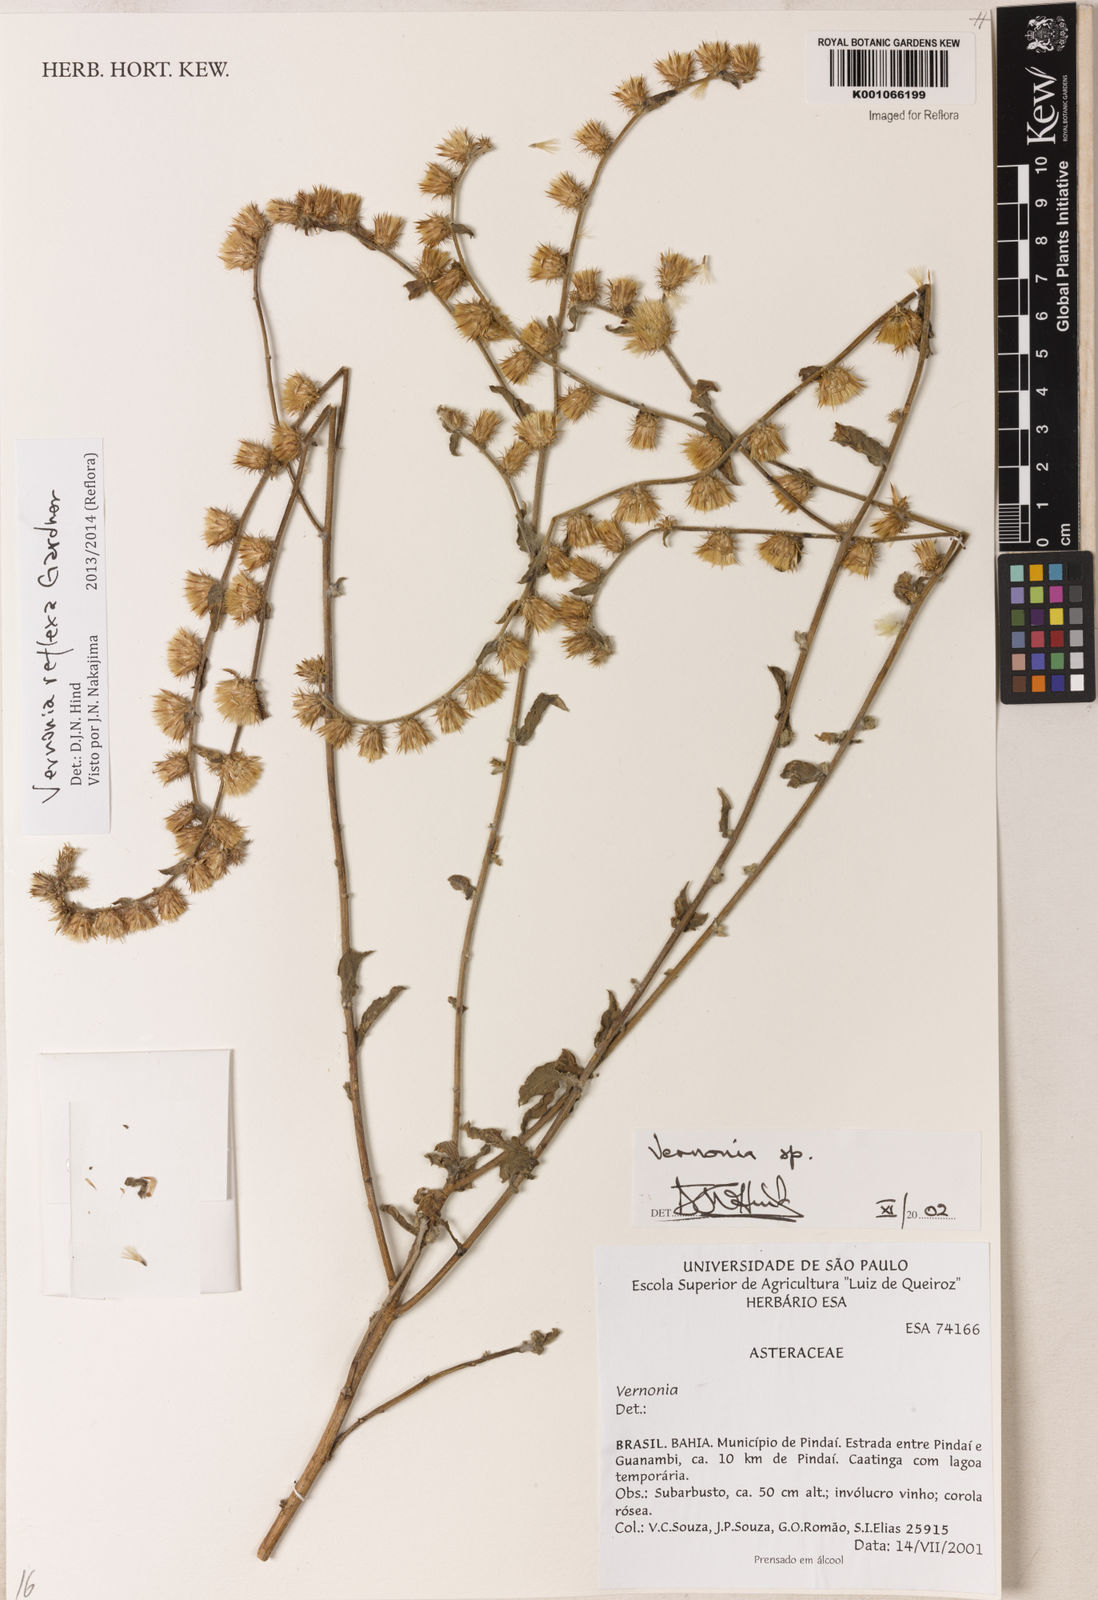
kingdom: Plantae
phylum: Tracheophyta
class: Magnoliopsida
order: Asterales
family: Asteraceae
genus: Lepidaploa
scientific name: Lepidaploa reflexa
